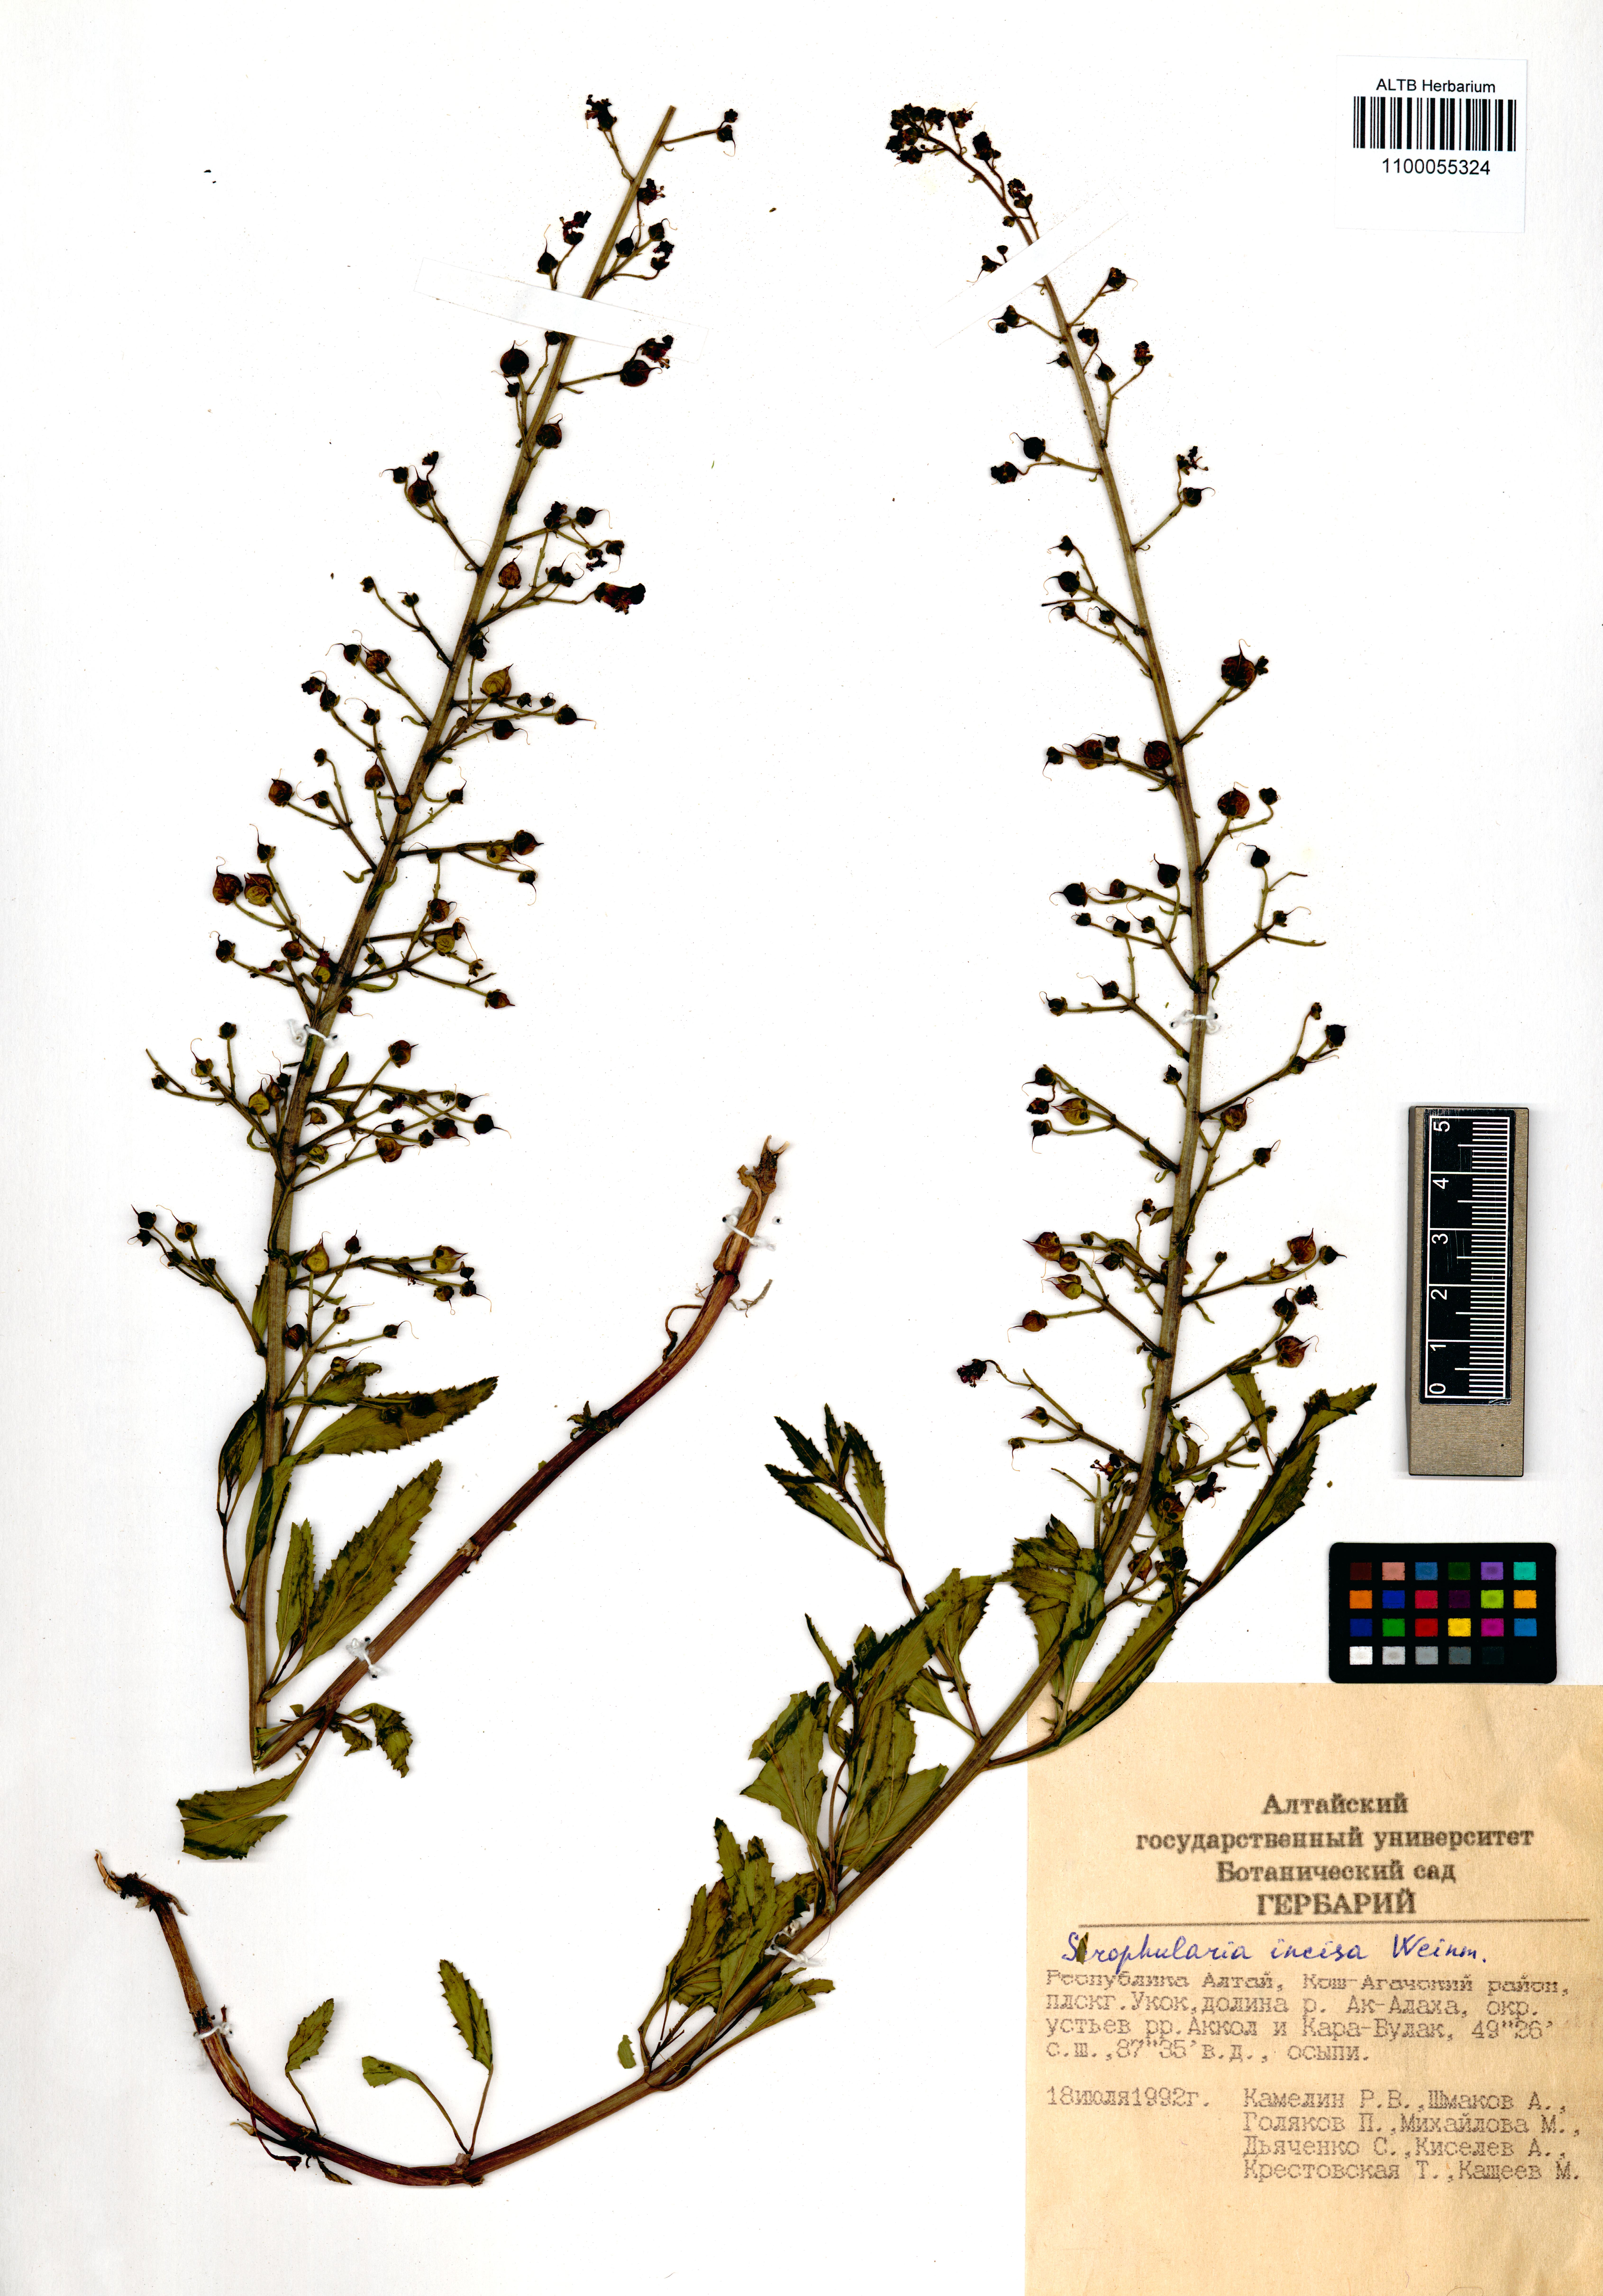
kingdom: Plantae
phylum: Tracheophyta
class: Magnoliopsida
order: Lamiales
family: Scrophulariaceae
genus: Scrophularia
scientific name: Scrophularia incisa
